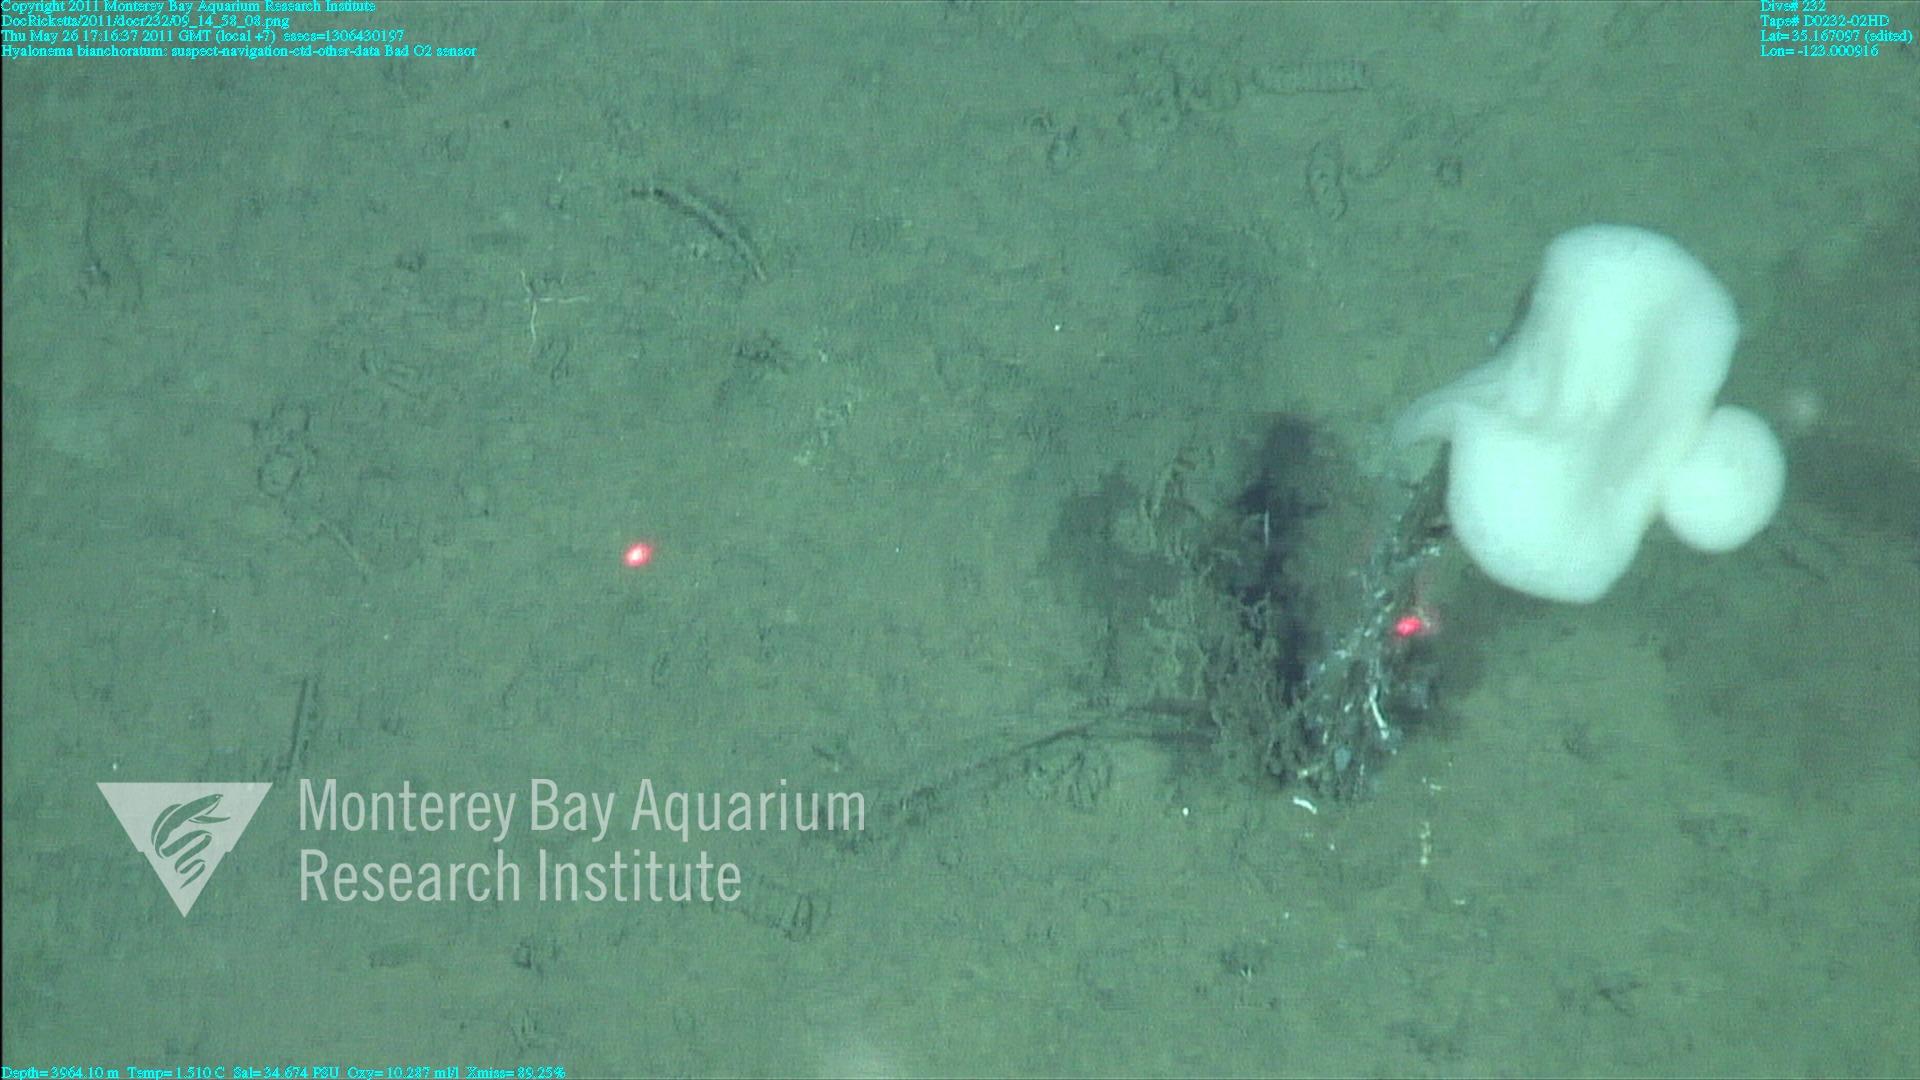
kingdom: Animalia
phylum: Porifera
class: Hexactinellida
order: Amphidiscosida
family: Hyalonematidae
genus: Hyalonema
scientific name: Hyalonema bianchoratum
